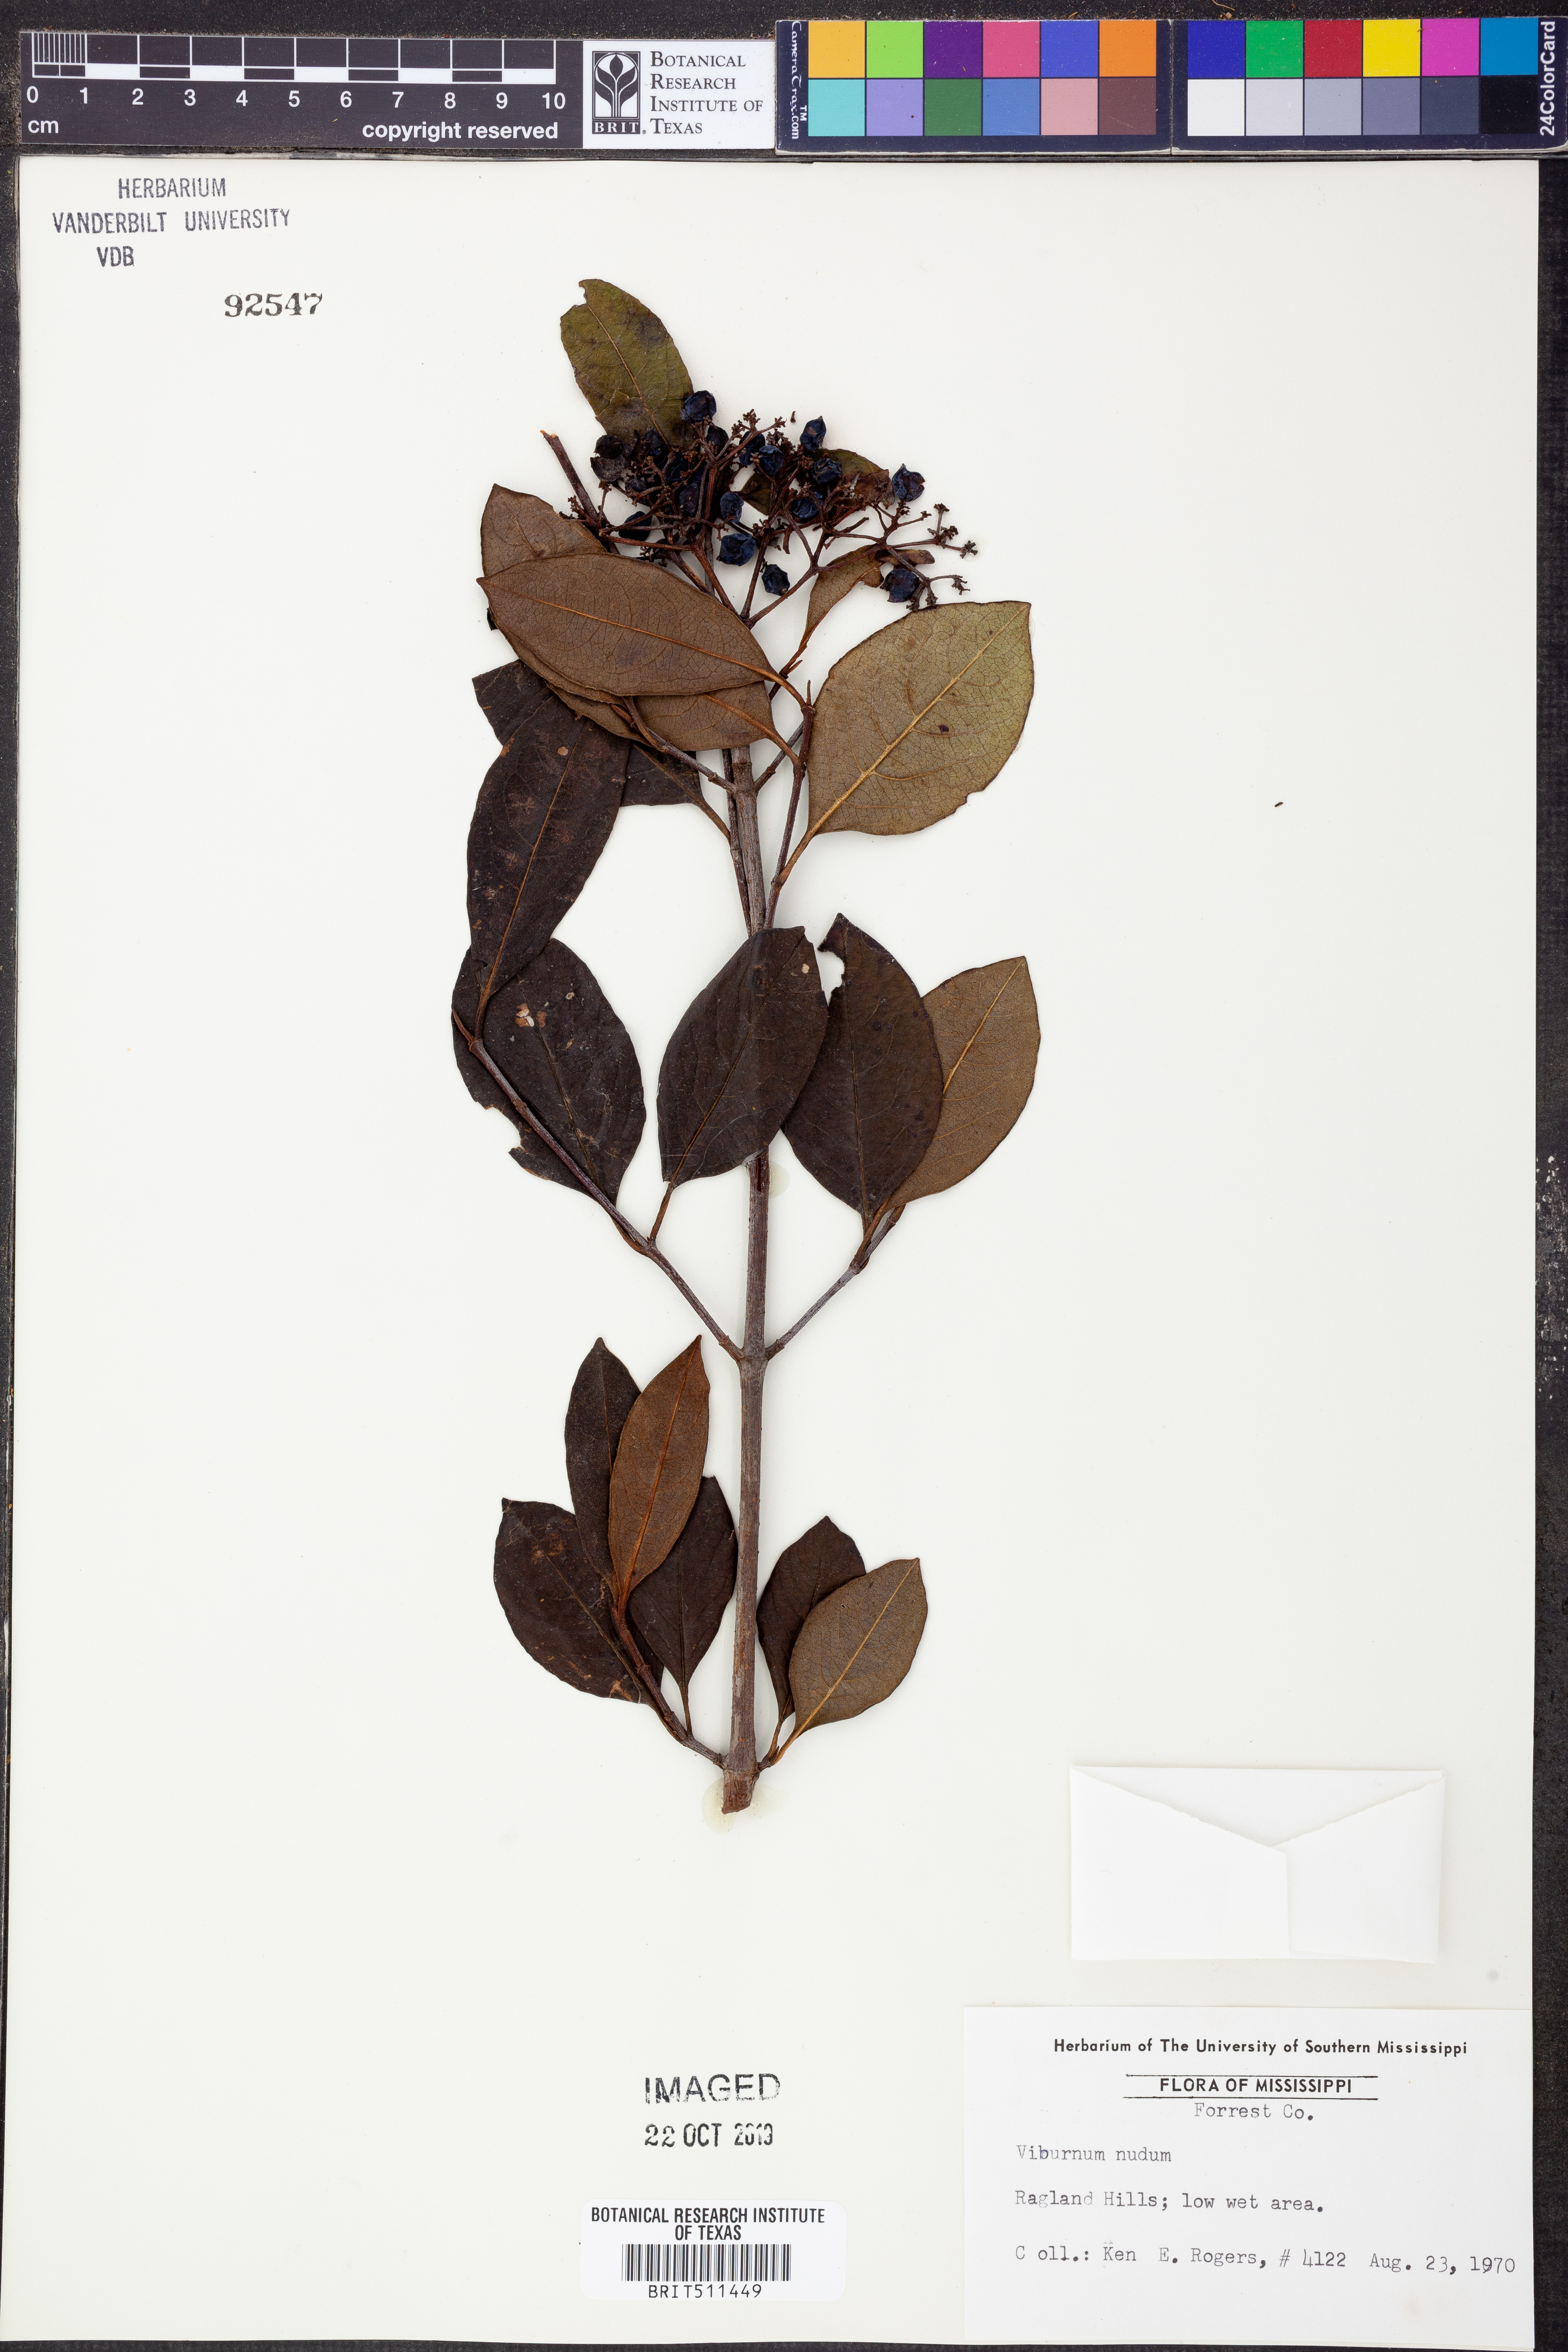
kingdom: Plantae
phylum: Tracheophyta
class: Magnoliopsida
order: Dipsacales
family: Viburnaceae
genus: Viburnum
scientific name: Viburnum nudum
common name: Possum haw
